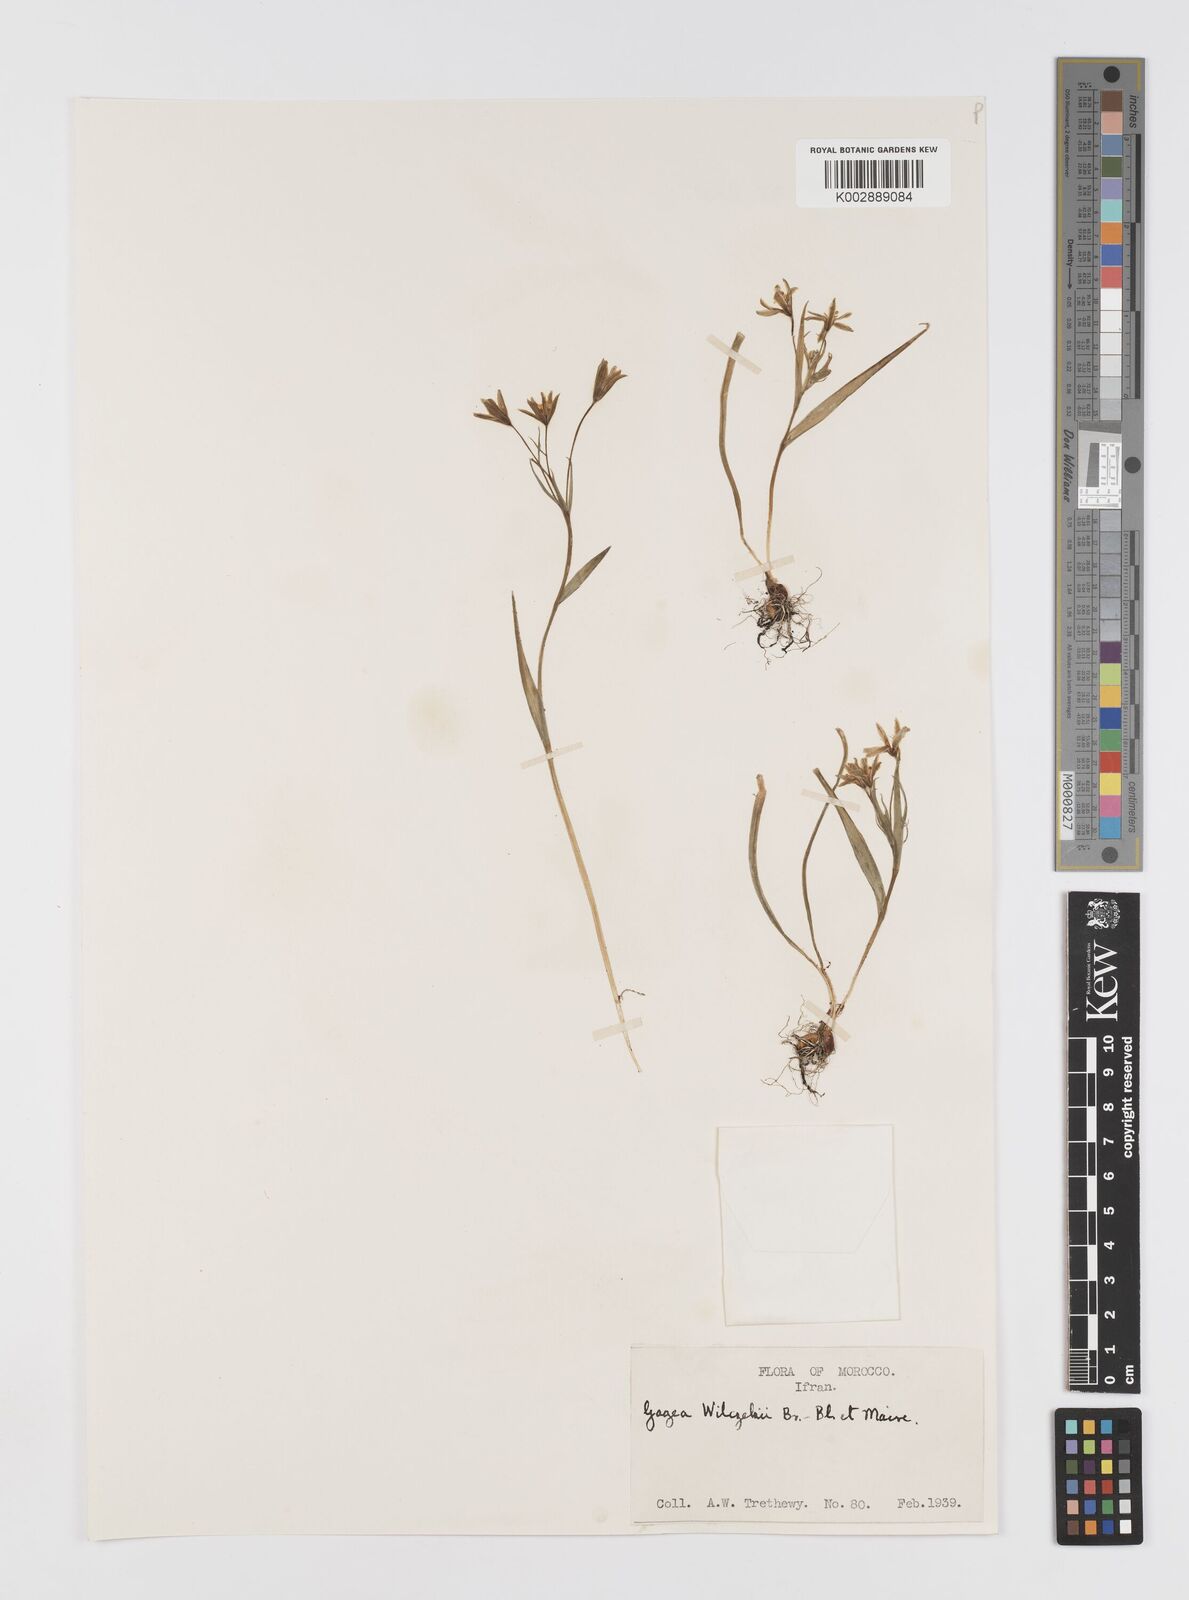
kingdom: Plantae
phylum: Tracheophyta
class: Liliopsida
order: Liliales
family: Liliaceae
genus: Gagea
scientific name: Gagea
